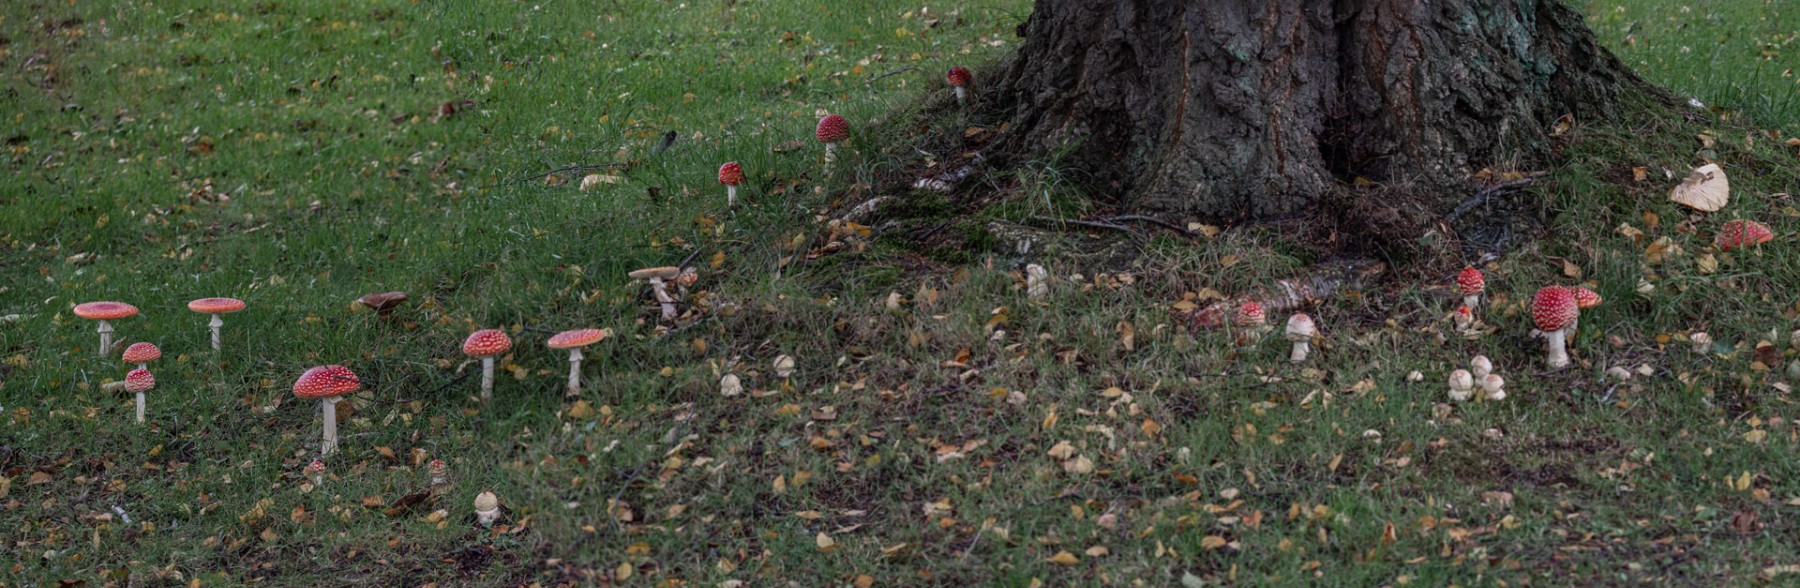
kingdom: Fungi
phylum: Basidiomycota
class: Agaricomycetes
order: Agaricales
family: Amanitaceae
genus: Amanita
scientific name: Amanita muscaria
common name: rød fluesvamp
